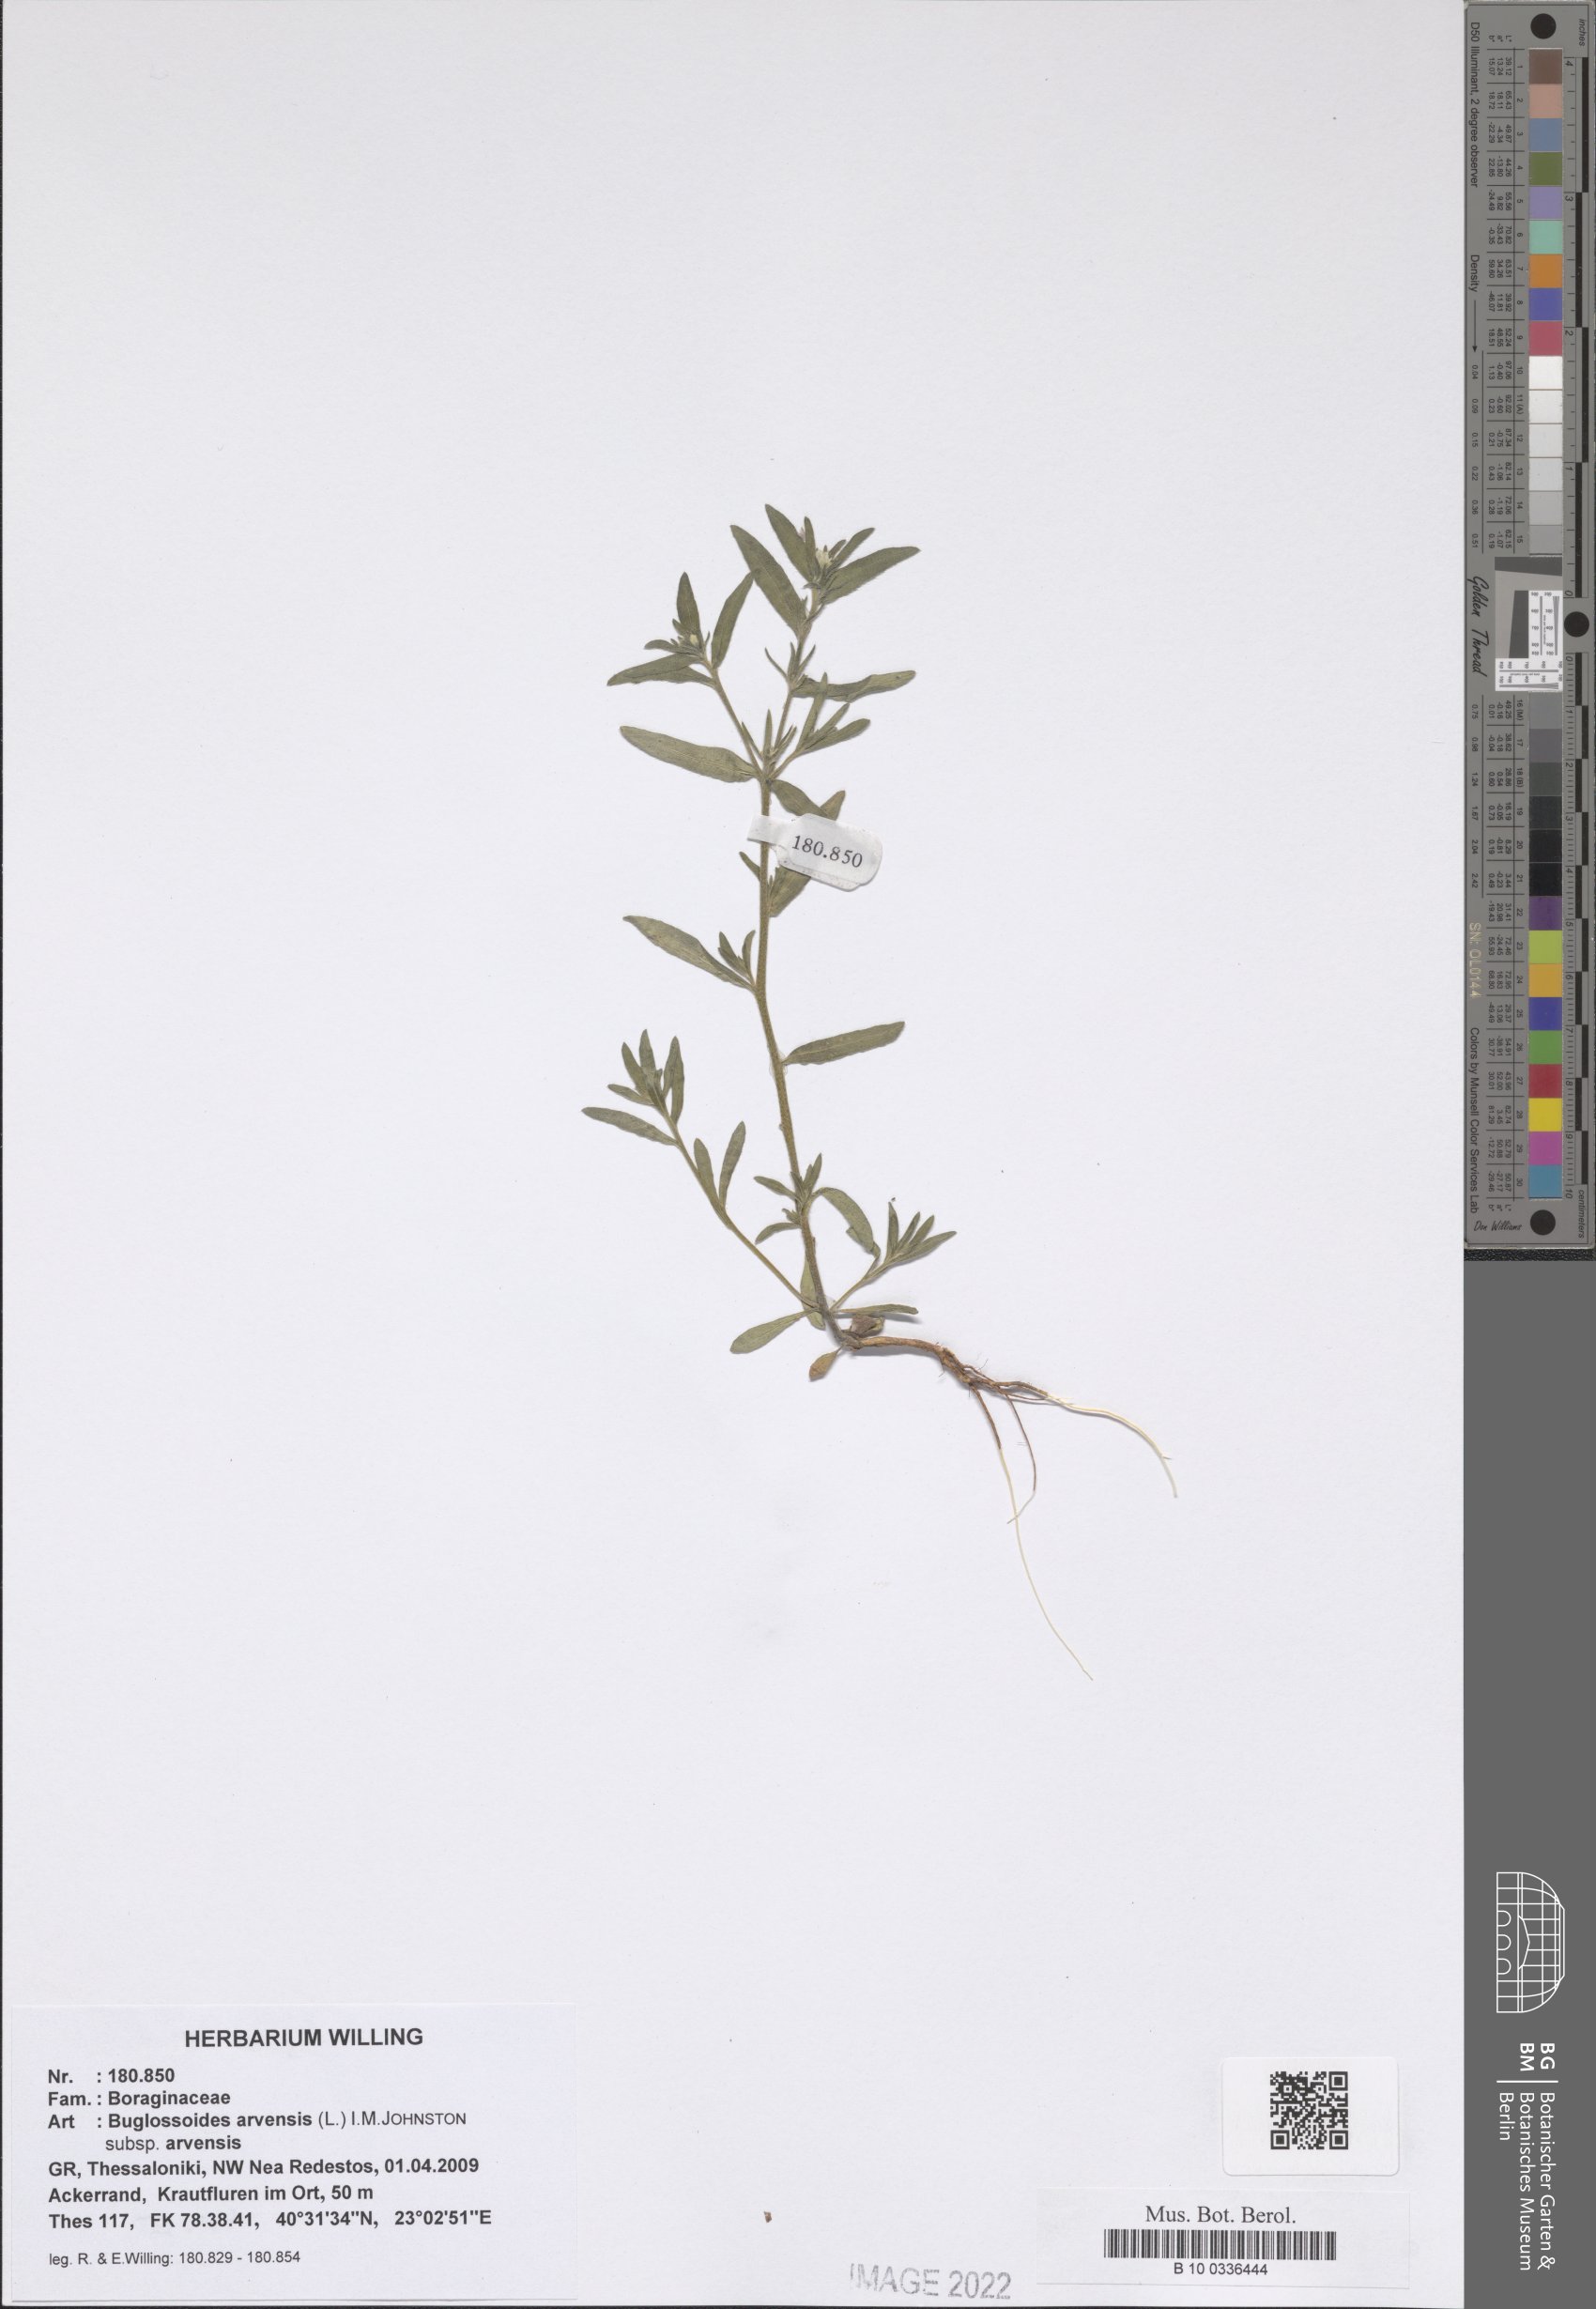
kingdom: Plantae
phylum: Tracheophyta
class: Magnoliopsida
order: Boraginales
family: Boraginaceae
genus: Buglossoides
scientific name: Buglossoides arvensis
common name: Corn gromwell
